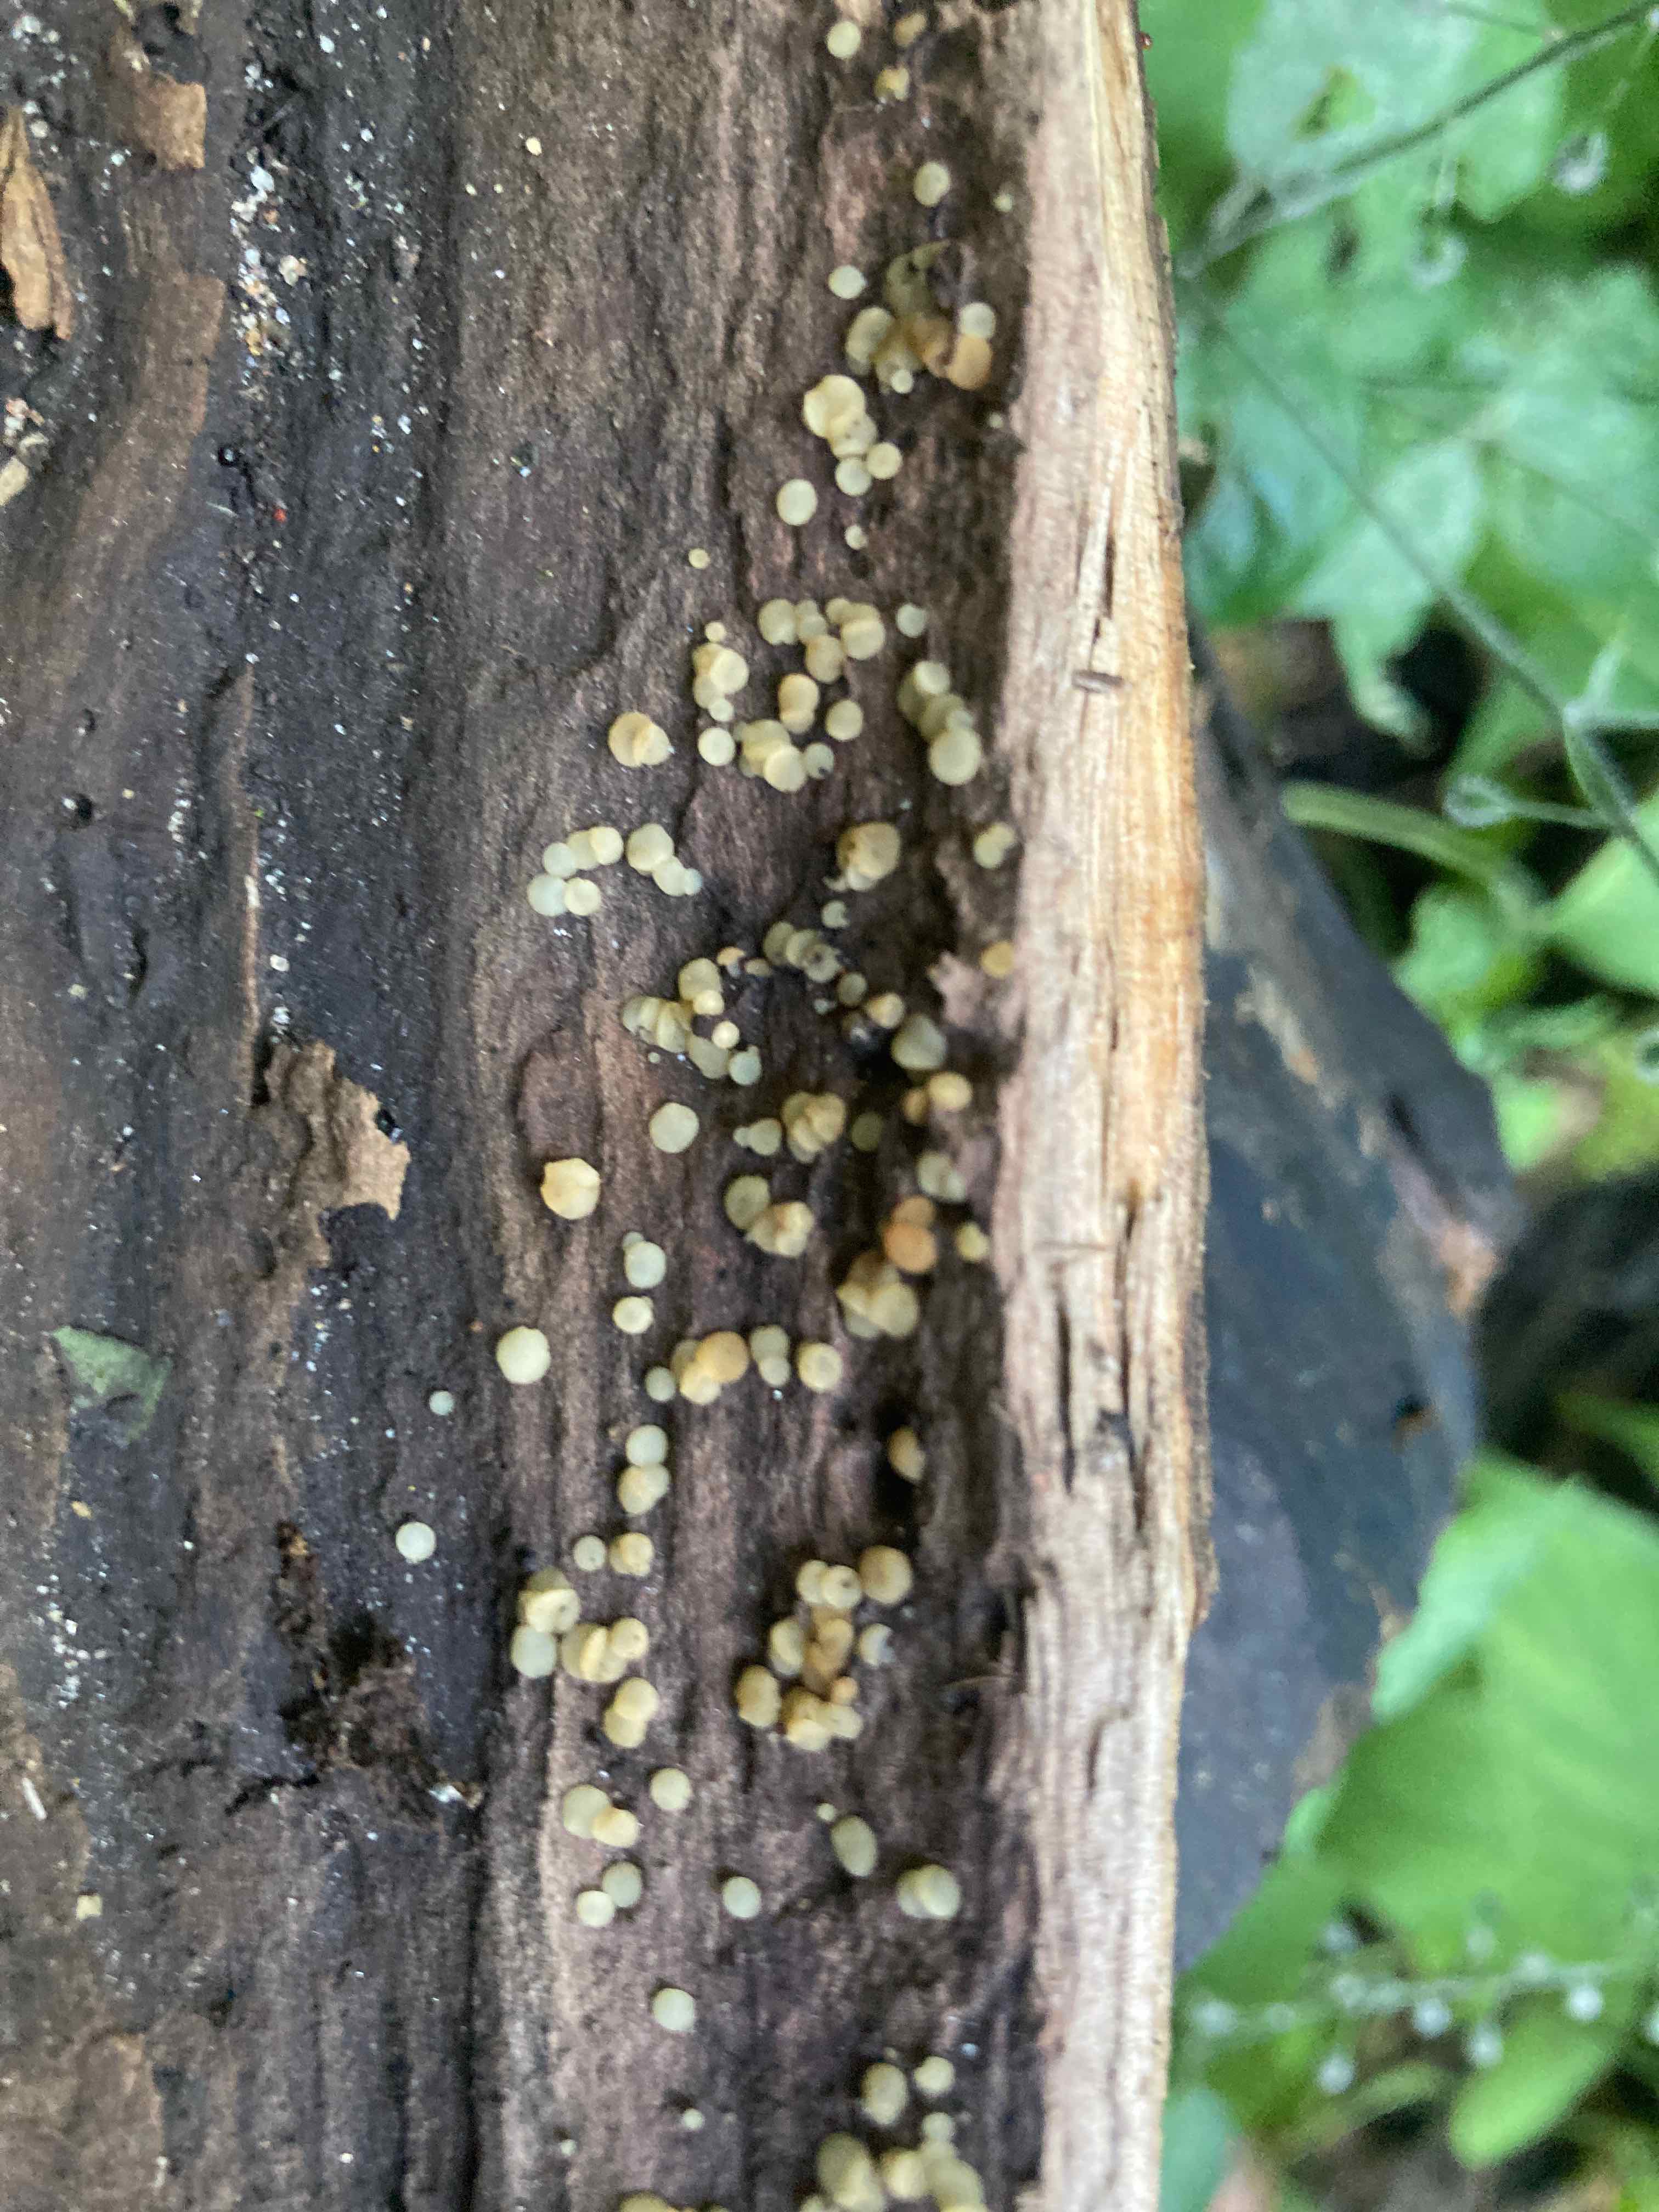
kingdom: Fungi
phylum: Ascomycota
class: Leotiomycetes
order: Helotiales
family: Helotiaceae
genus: Hymenoscyphus
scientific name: Hymenoscyphus imberbis
